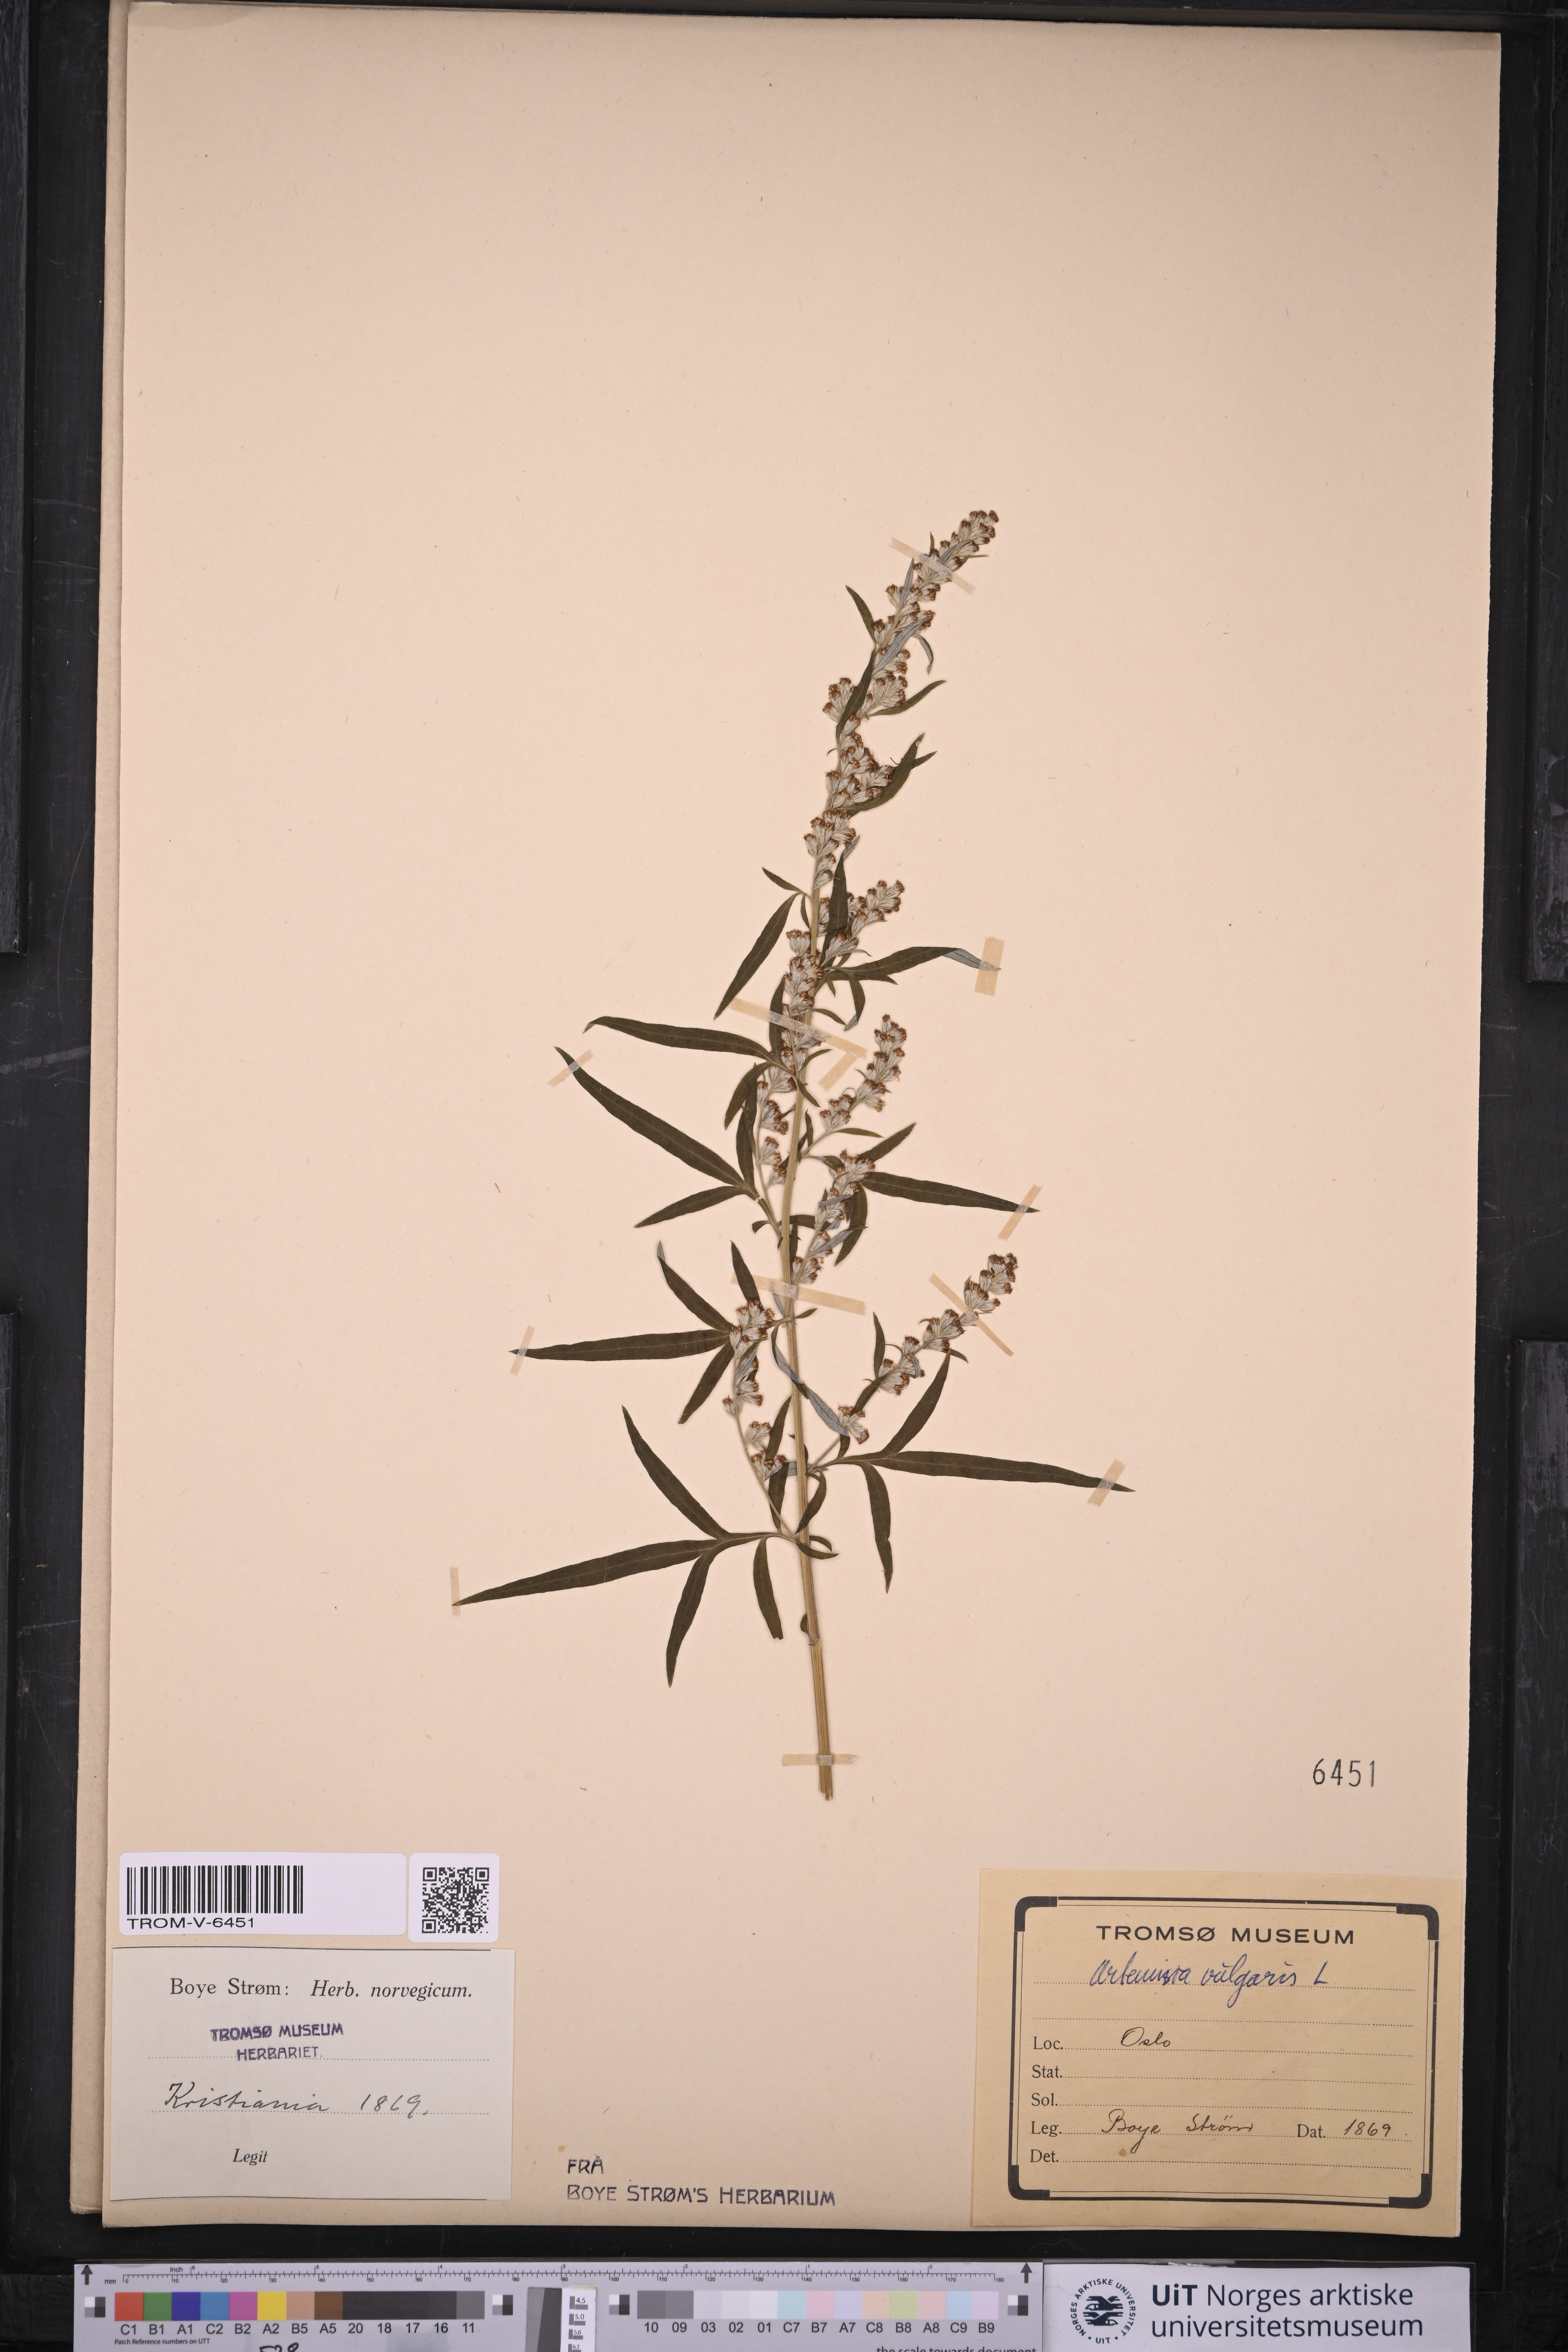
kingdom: Plantae
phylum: Tracheophyta
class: Magnoliopsida
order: Asterales
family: Asteraceae
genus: Artemisia
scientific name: Artemisia vulgaris
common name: Mugwort
